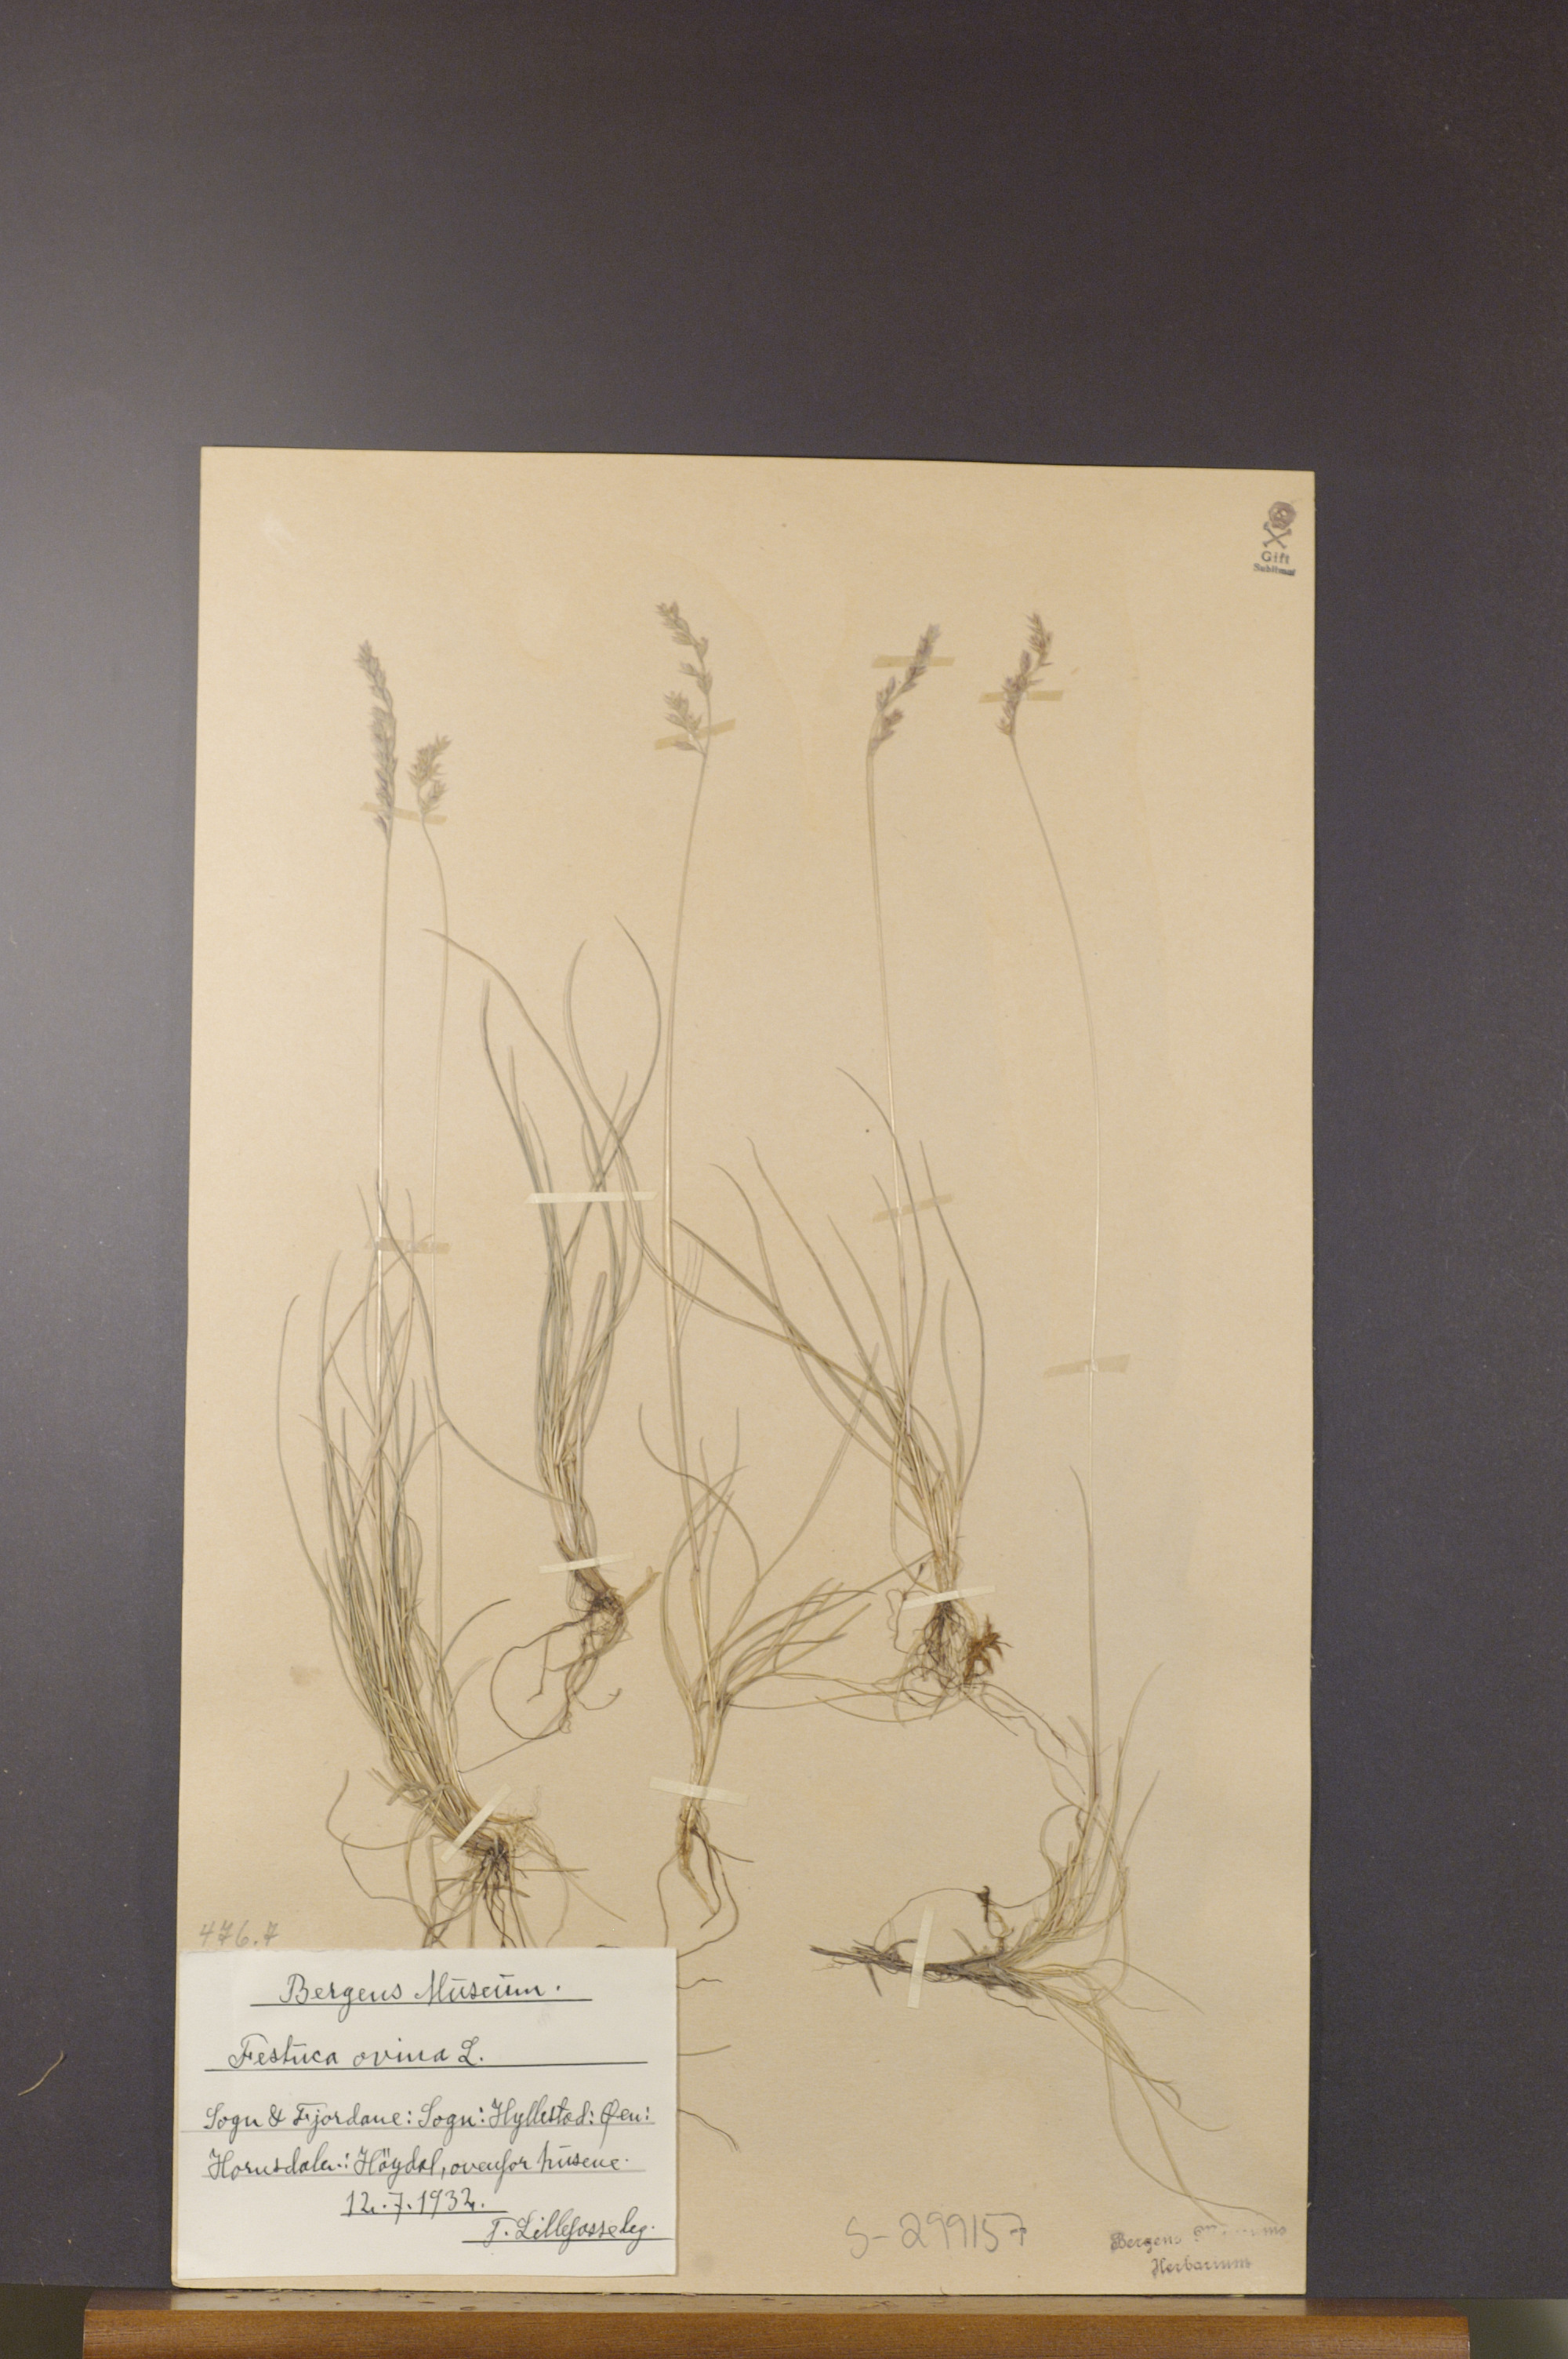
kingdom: Plantae
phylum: Tracheophyta
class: Liliopsida
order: Poales
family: Poaceae
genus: Festuca
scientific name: Festuca ovina
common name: Sheep fescue
